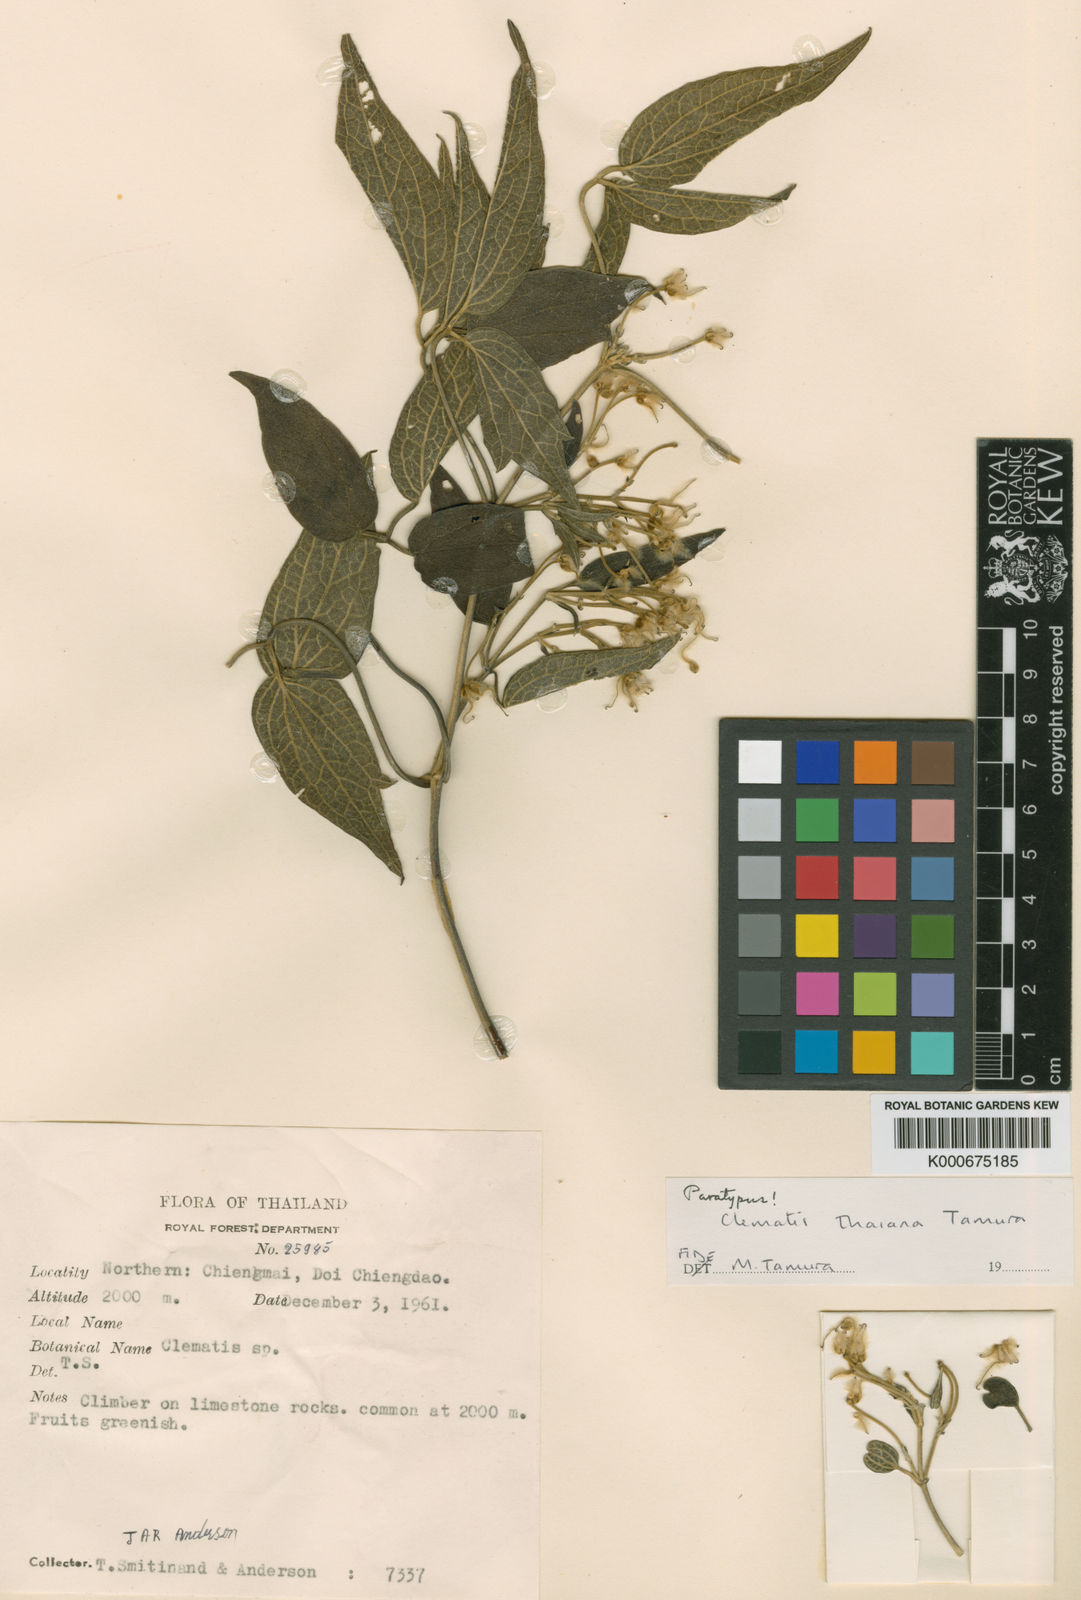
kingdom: Plantae
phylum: Tracheophyta
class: Magnoliopsida
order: Ranunculales
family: Ranunculaceae
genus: Clematis
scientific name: Clematis thaiana
